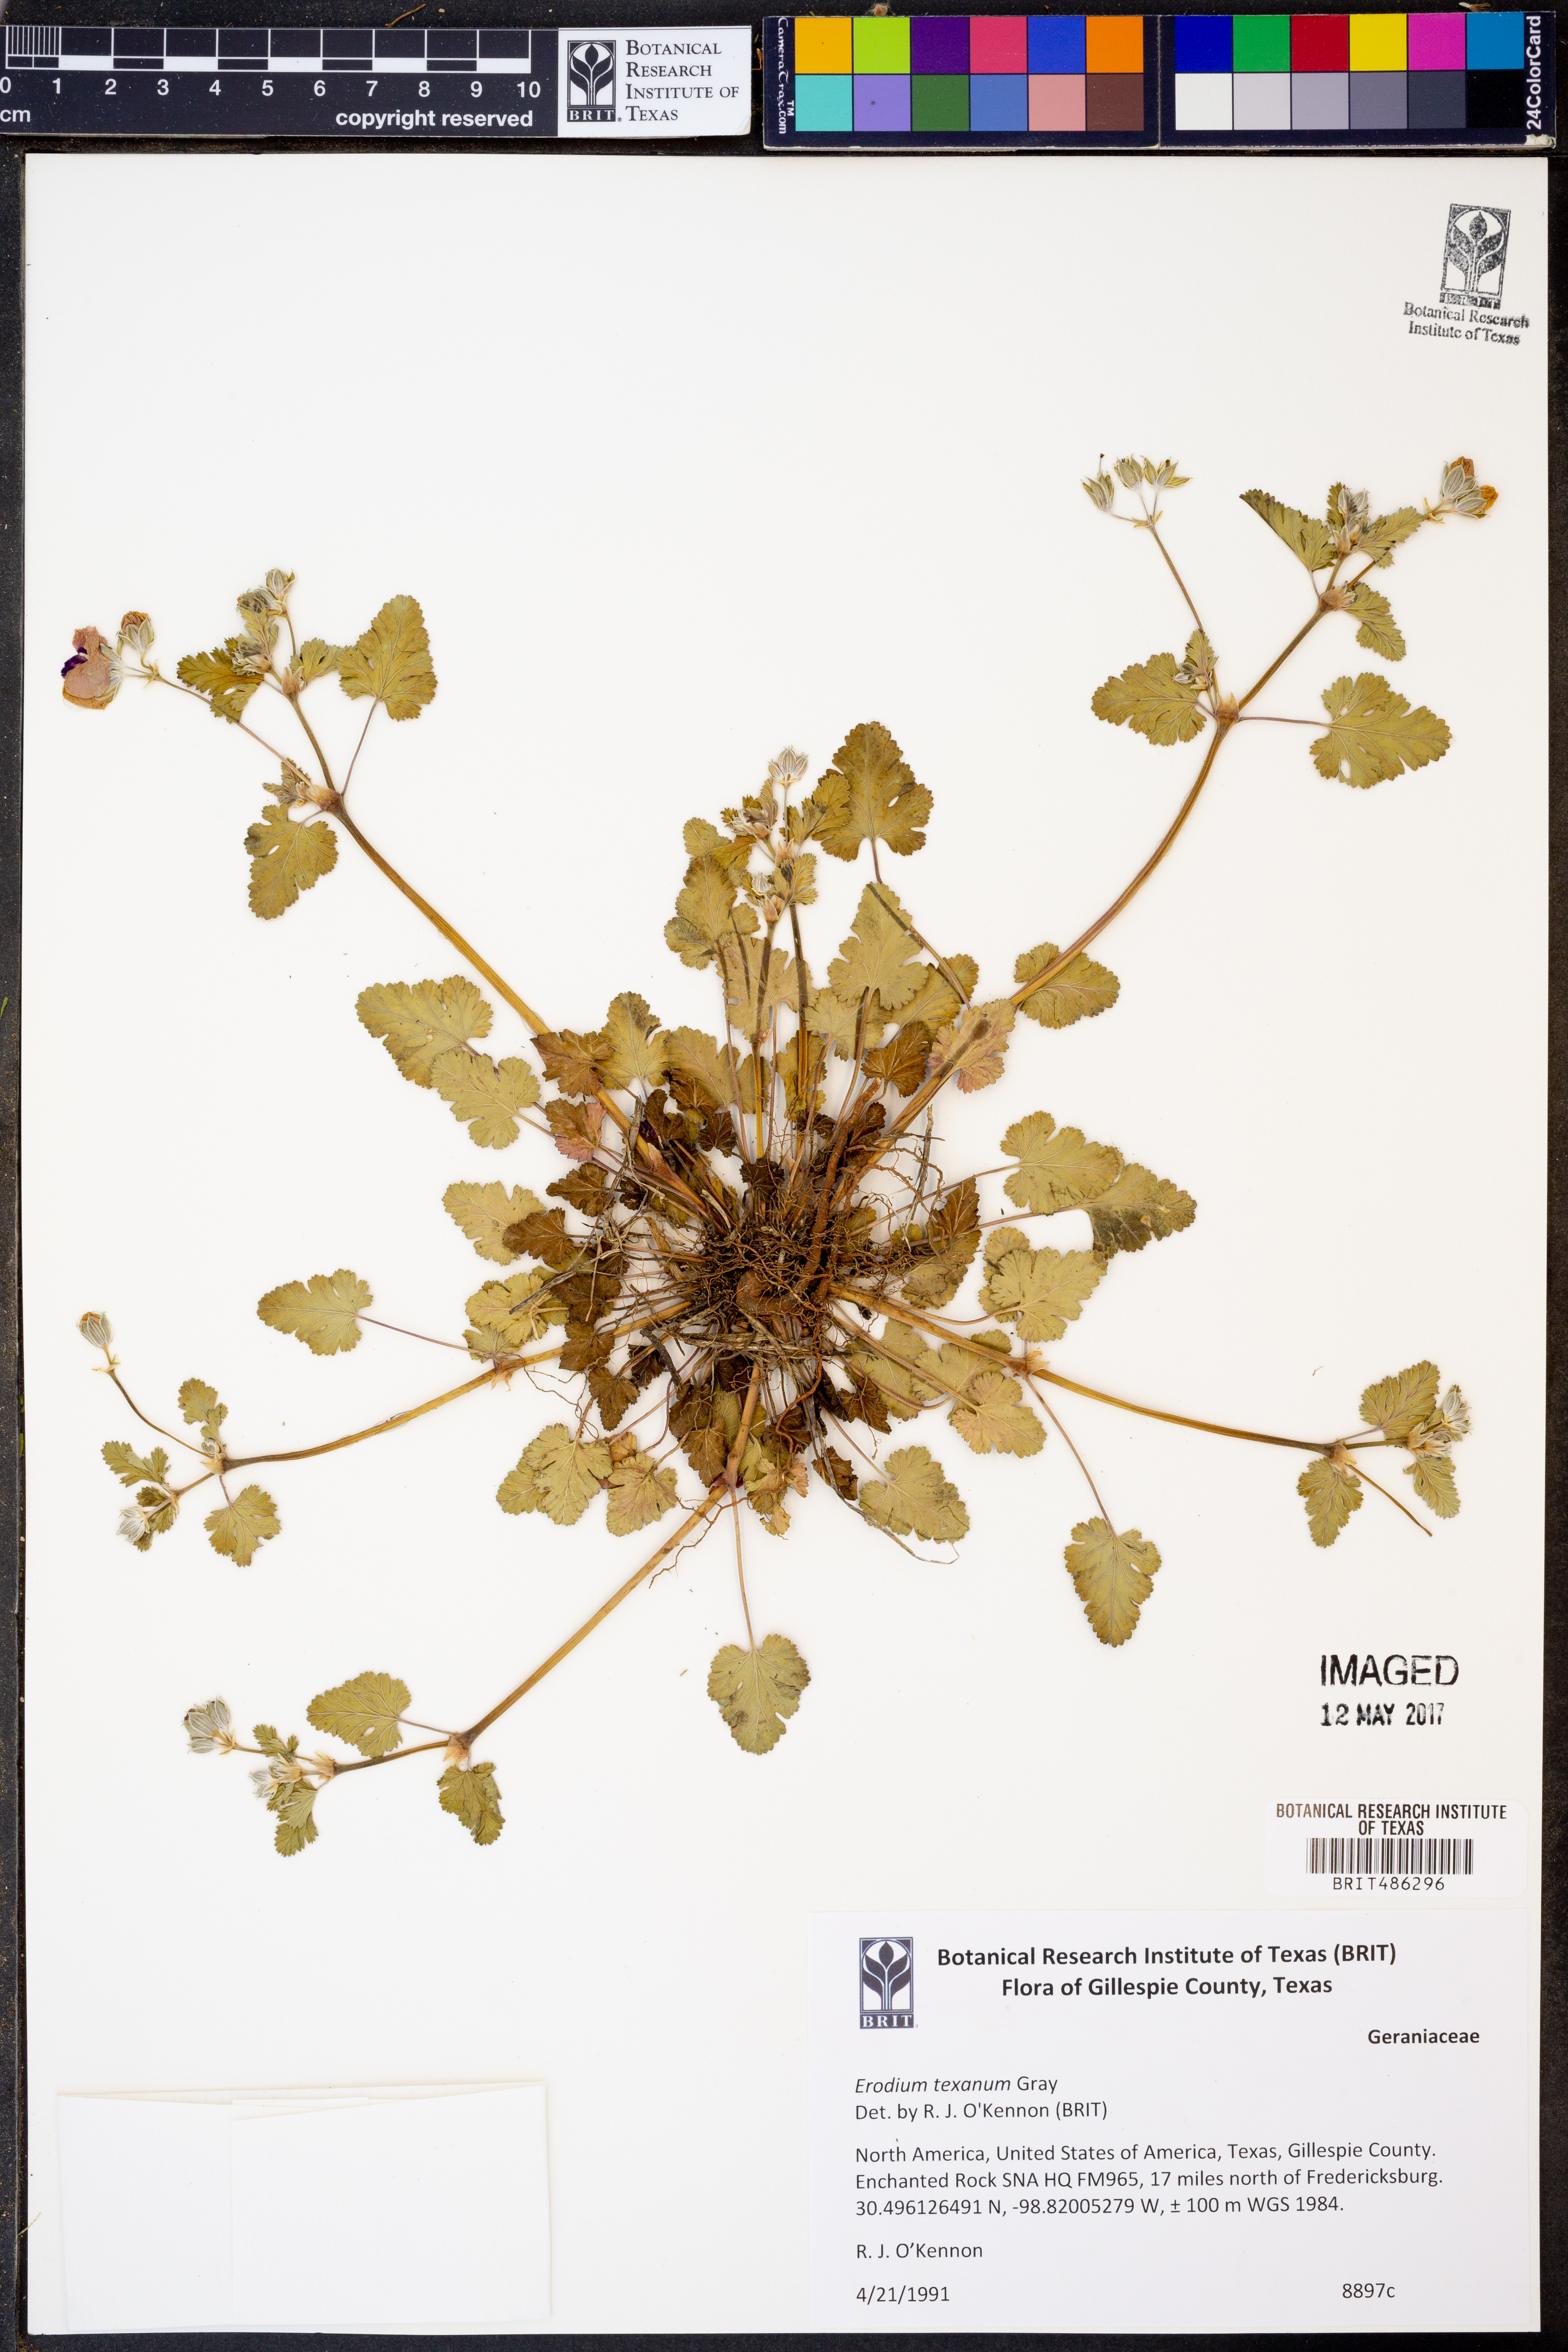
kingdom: Plantae
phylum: Tracheophyta
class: Magnoliopsida
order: Geraniales
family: Geraniaceae
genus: Erodium
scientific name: Erodium texanum
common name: Texas stork's-bill
